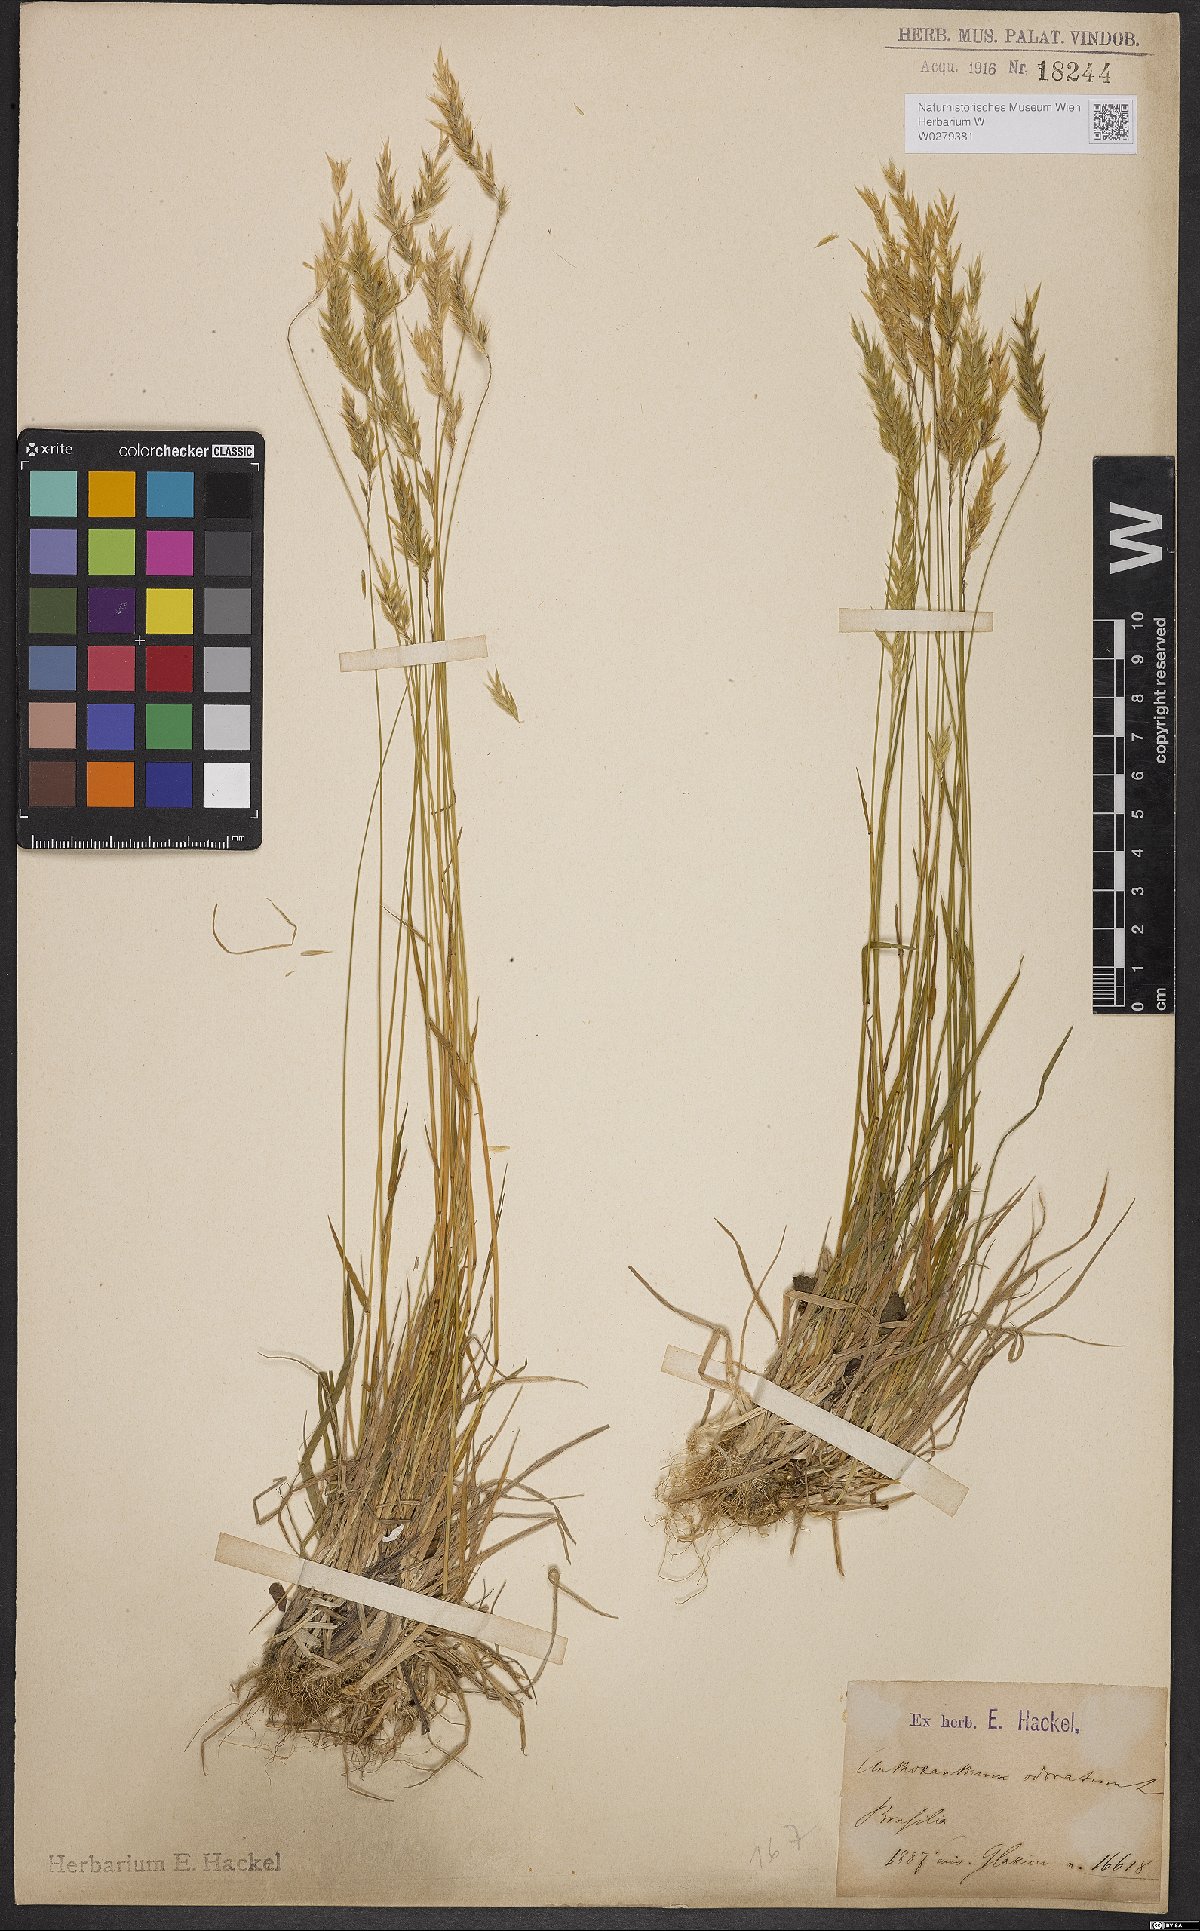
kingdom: Plantae
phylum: Tracheophyta
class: Liliopsida
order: Poales
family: Poaceae
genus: Anthoxanthum
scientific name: Anthoxanthum odoratum
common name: Sweet vernalgrass
